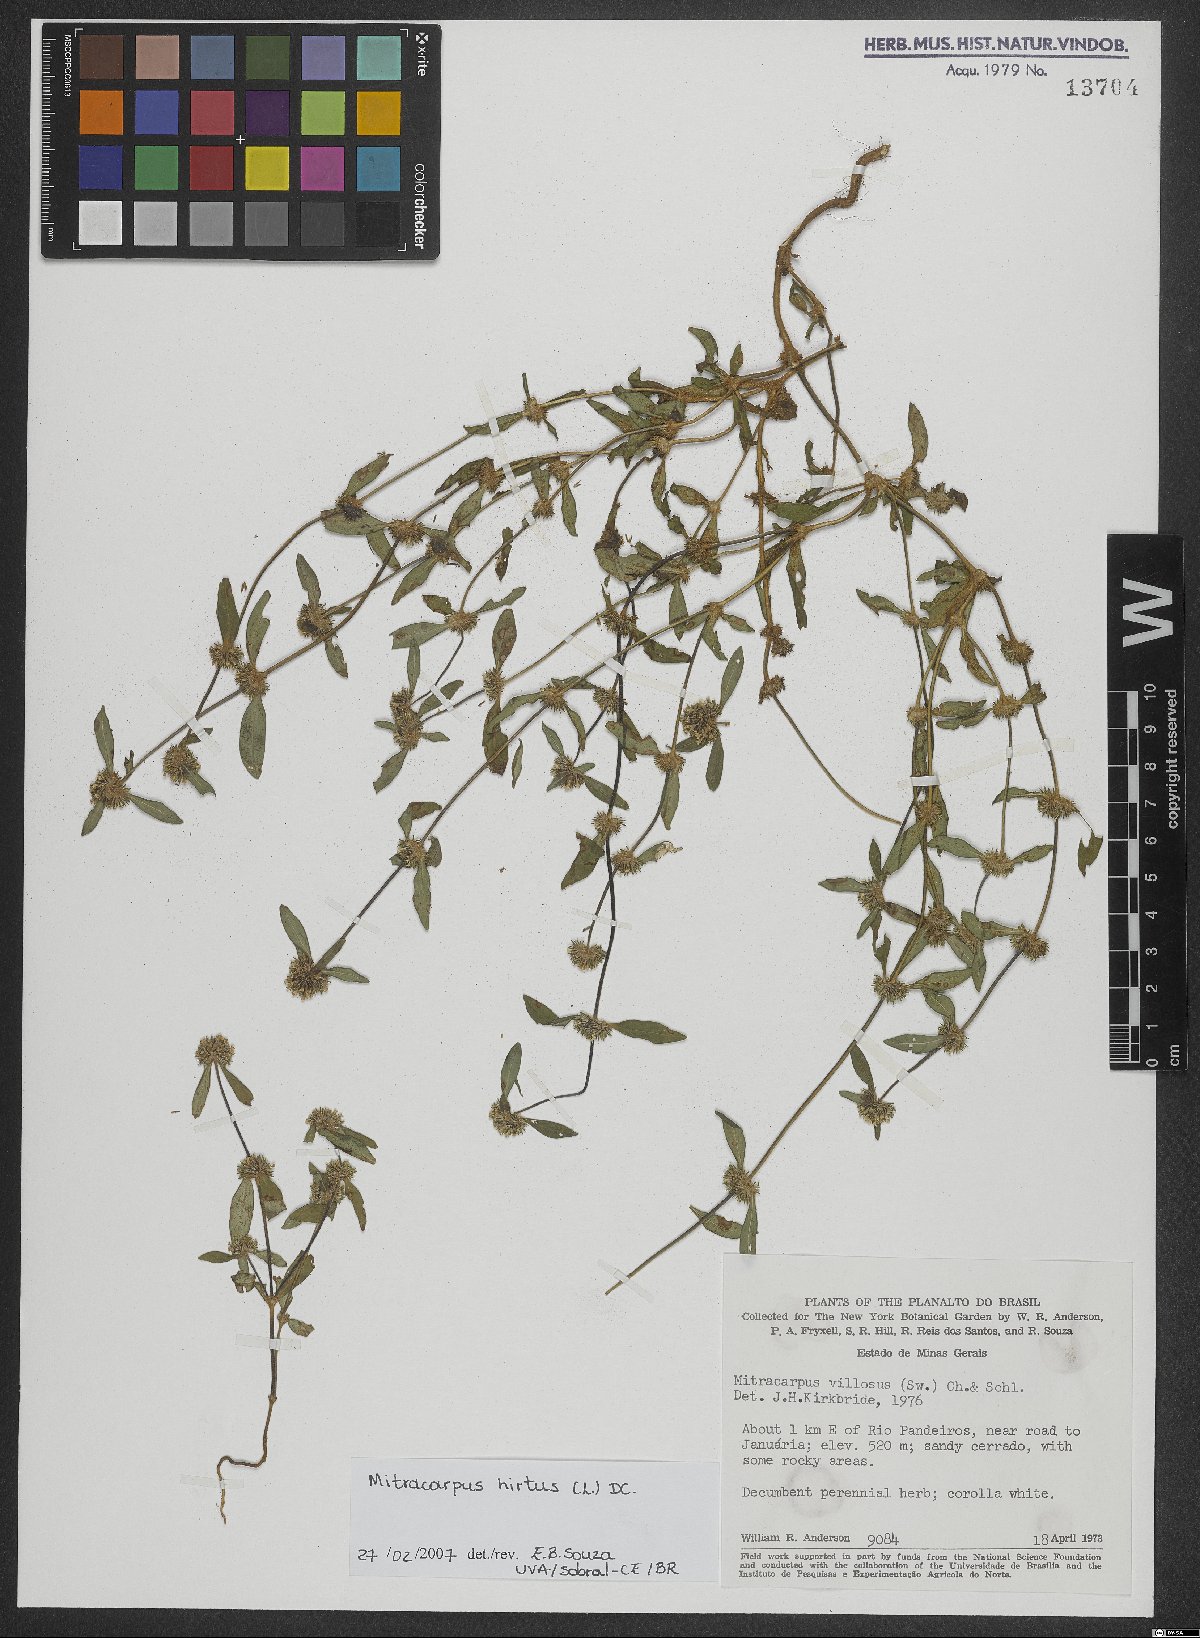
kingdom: Plantae
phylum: Tracheophyta
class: Magnoliopsida
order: Gentianales
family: Rubiaceae
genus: Mitracarpus
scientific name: Mitracarpus hirtus
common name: Tropical girdlepod
